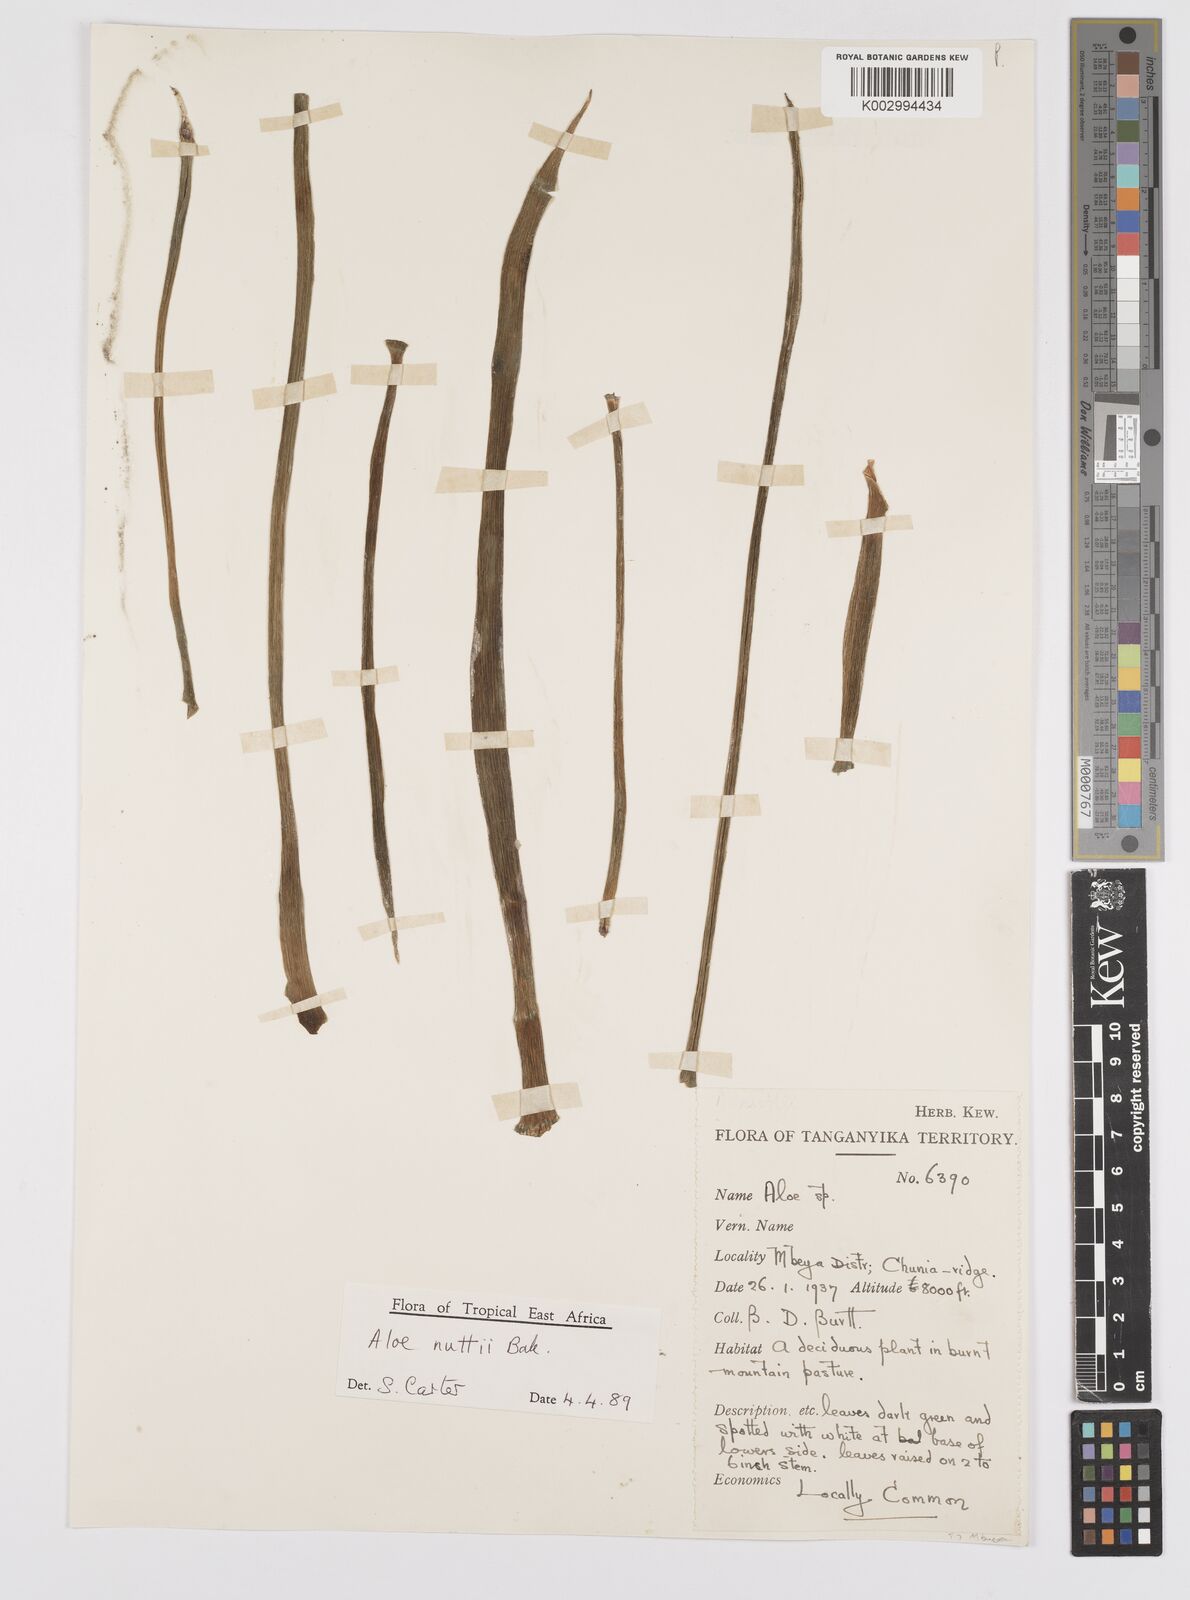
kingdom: Plantae
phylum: Tracheophyta
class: Liliopsida
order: Asparagales
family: Asphodelaceae
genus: Aloe
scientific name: Aloe nuttii
